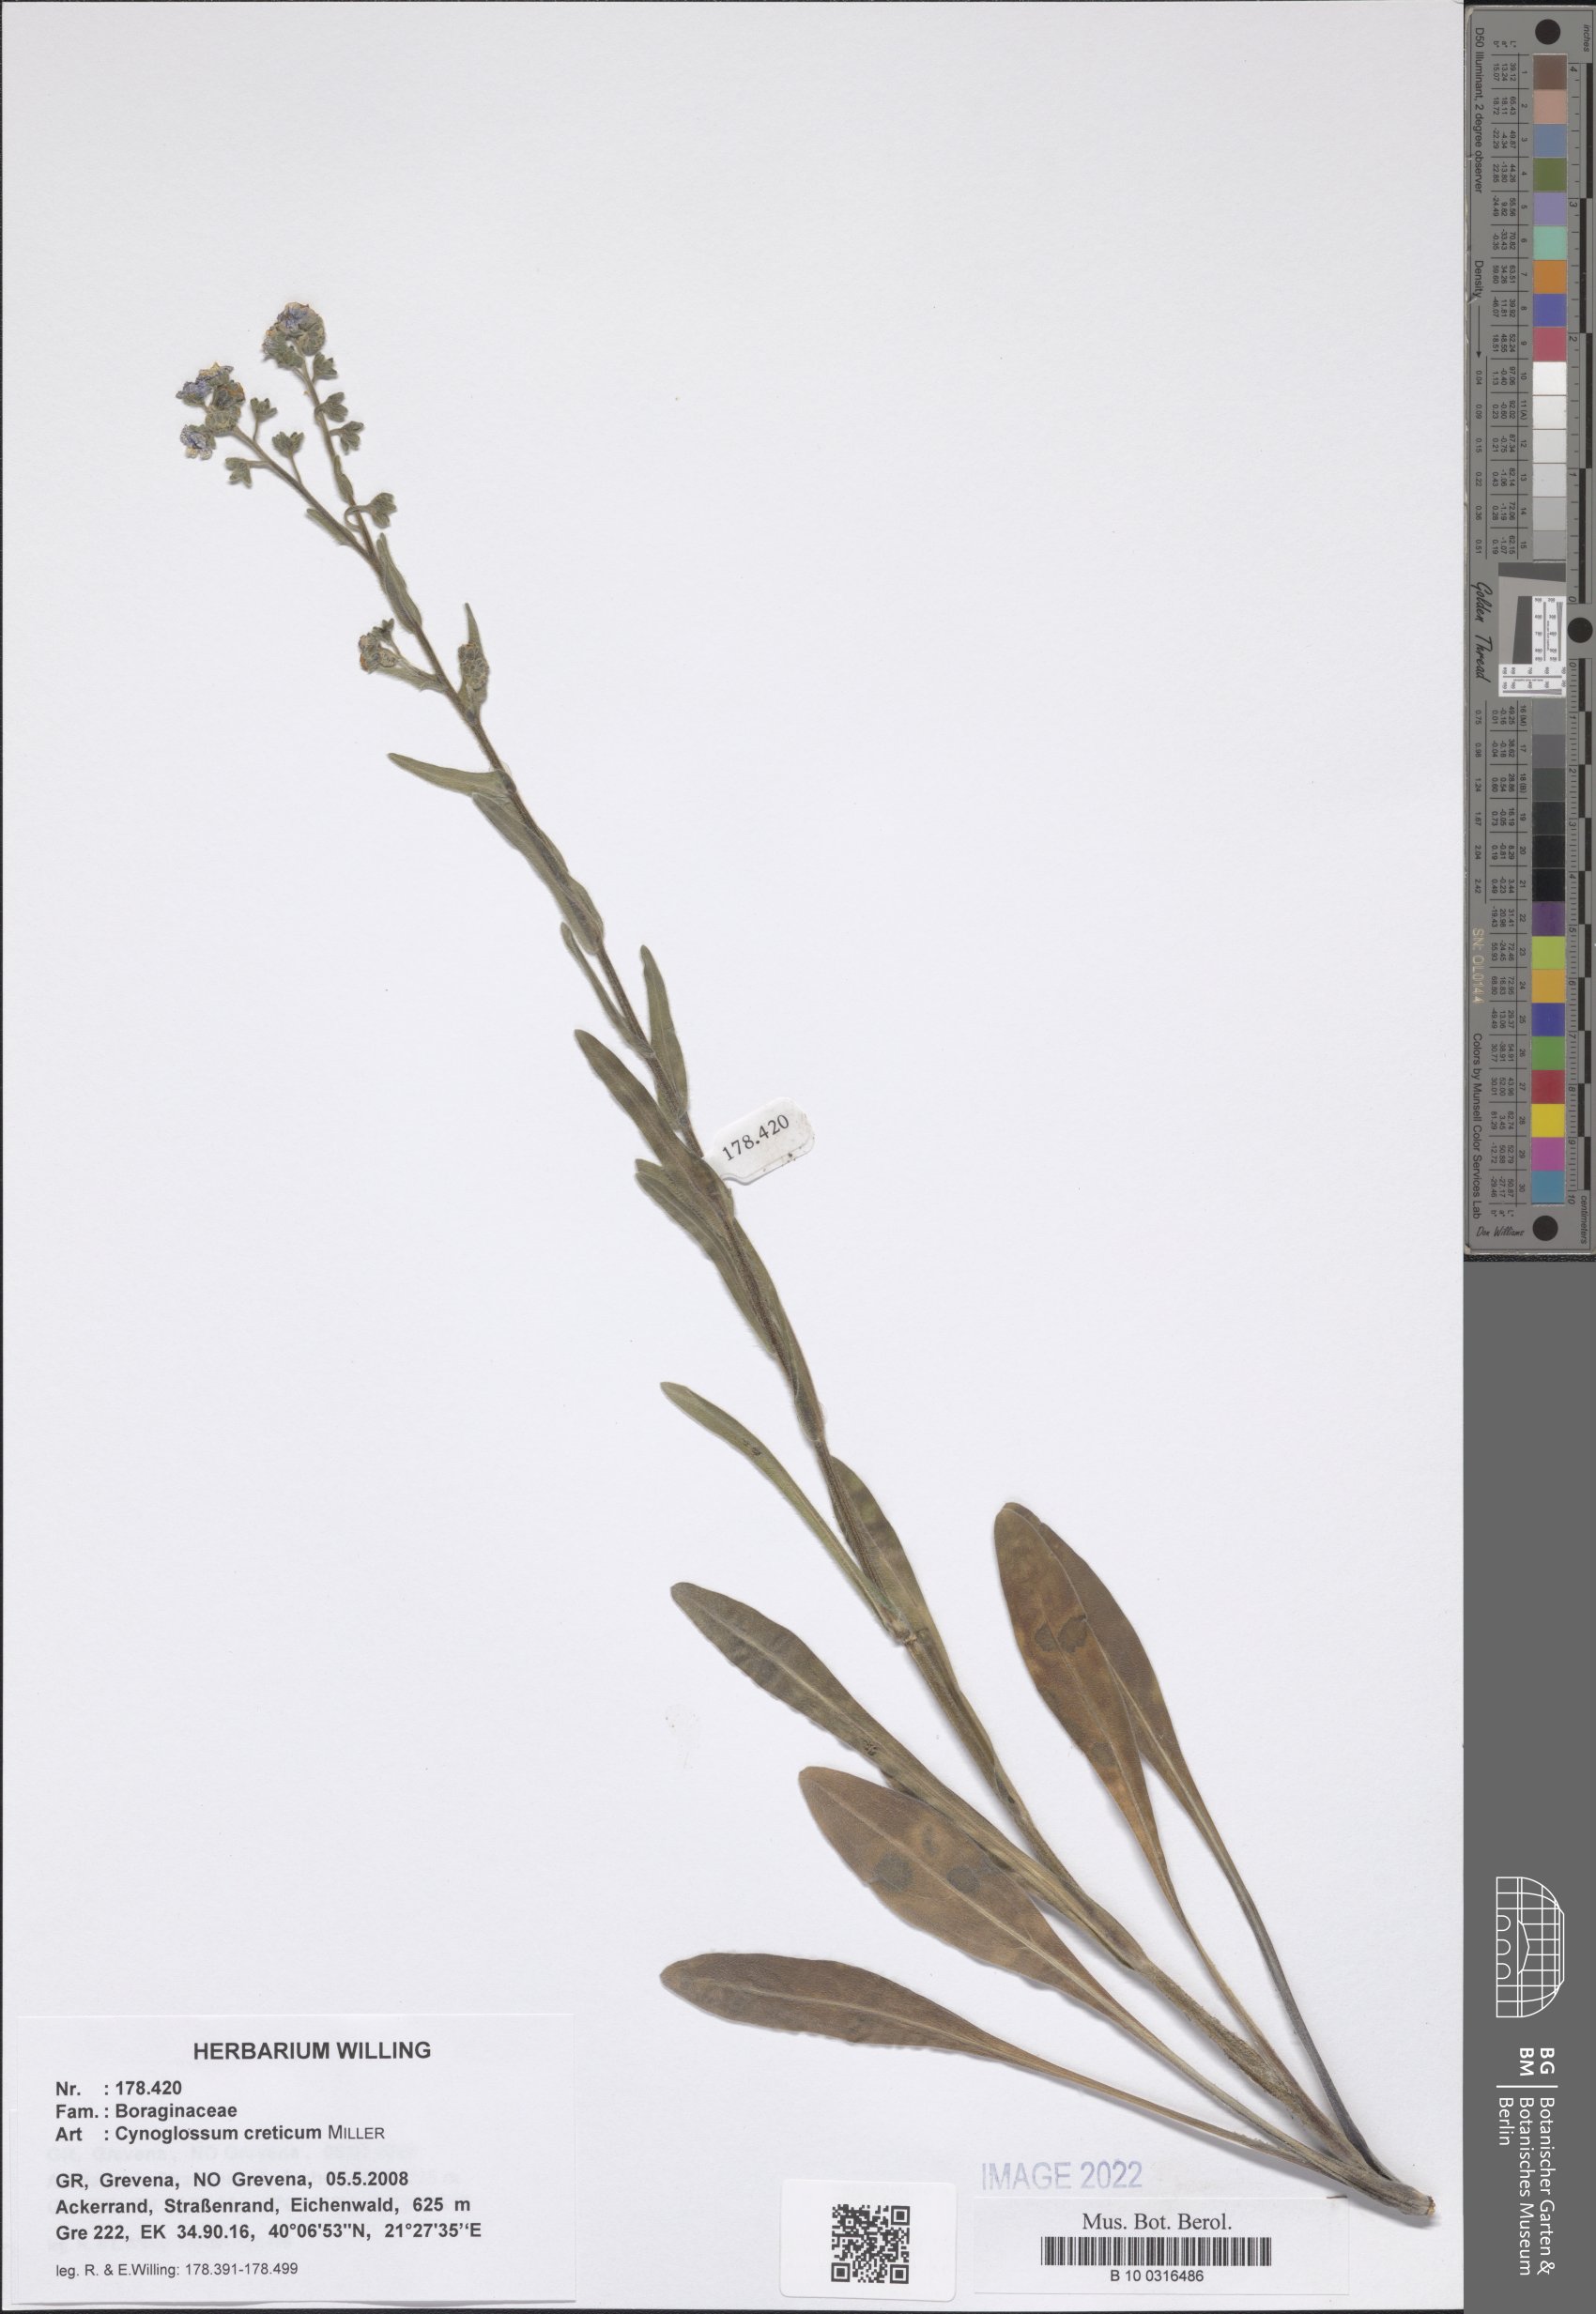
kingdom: Plantae
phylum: Tracheophyta
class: Magnoliopsida
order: Boraginales
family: Boraginaceae
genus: Cynoglossum
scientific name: Cynoglossum creticum
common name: Blue hound's tongue
